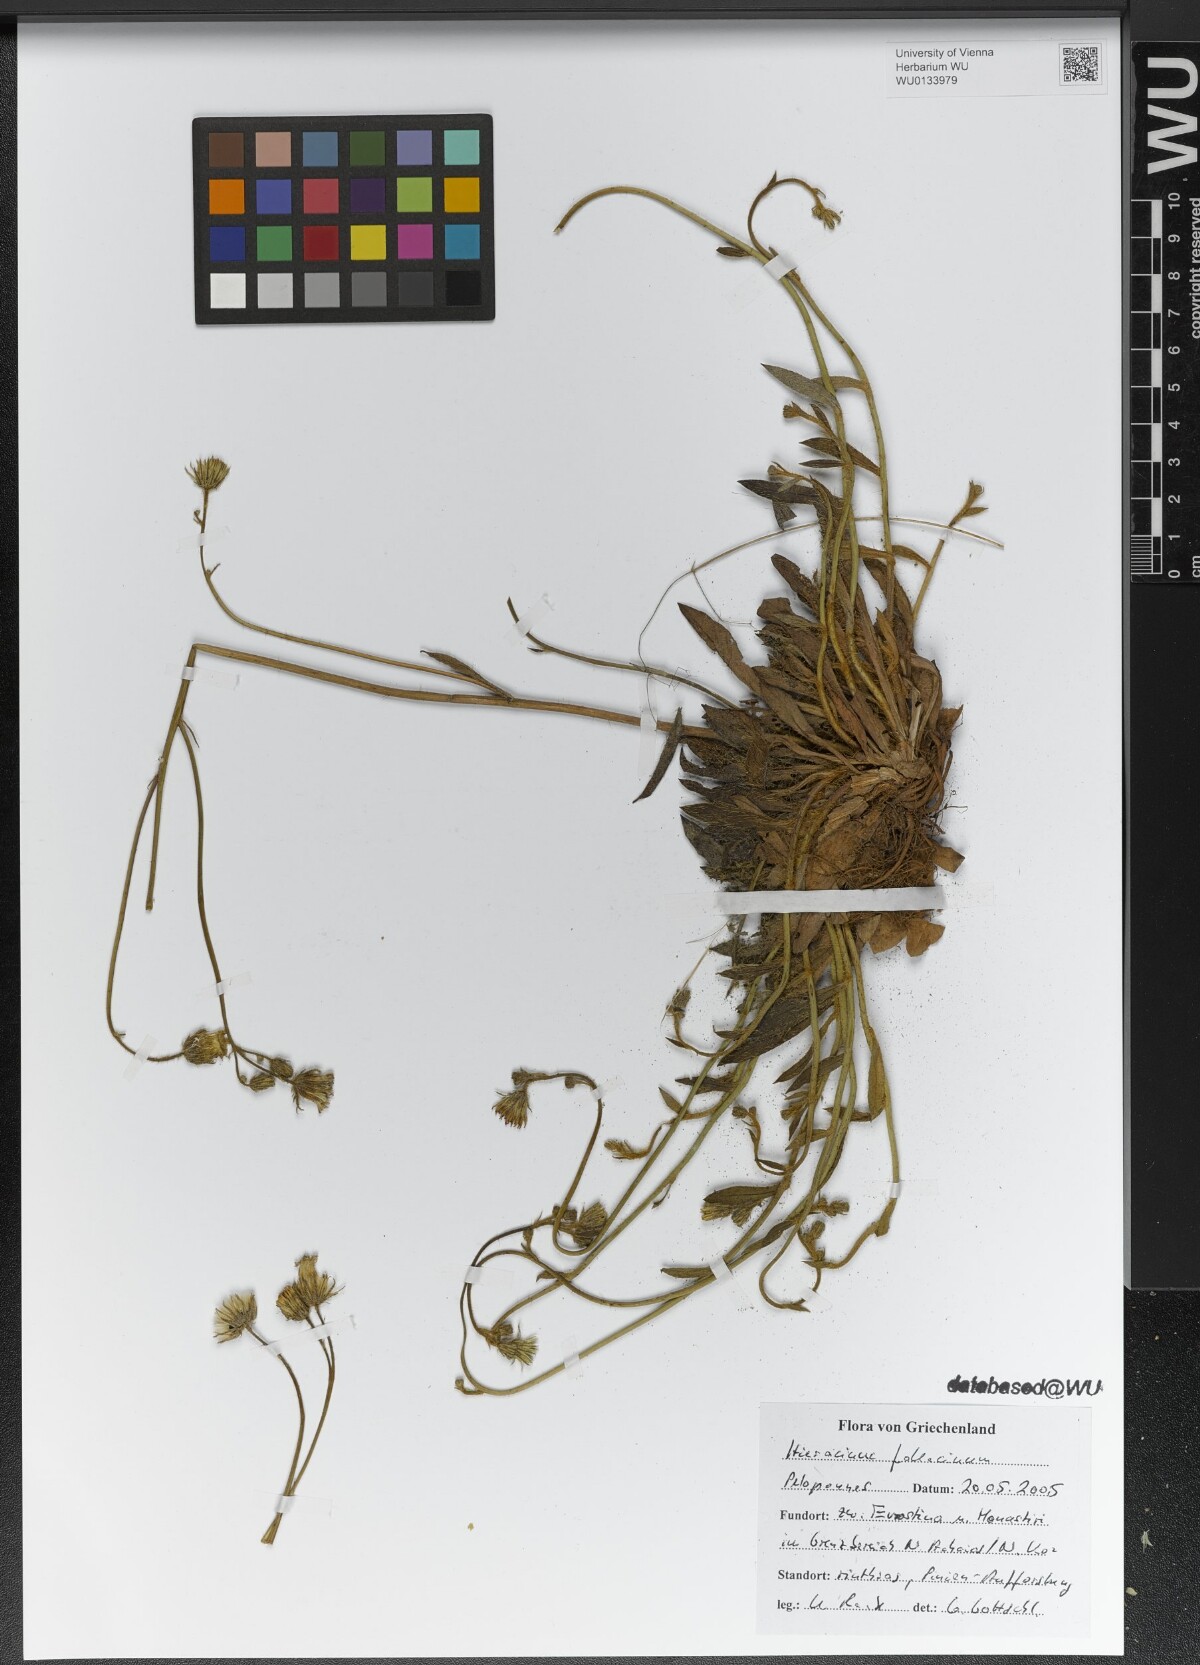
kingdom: Plantae
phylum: Tracheophyta
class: Magnoliopsida
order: Asterales
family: Asteraceae
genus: Pilosella
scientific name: Pilosella fallacina
